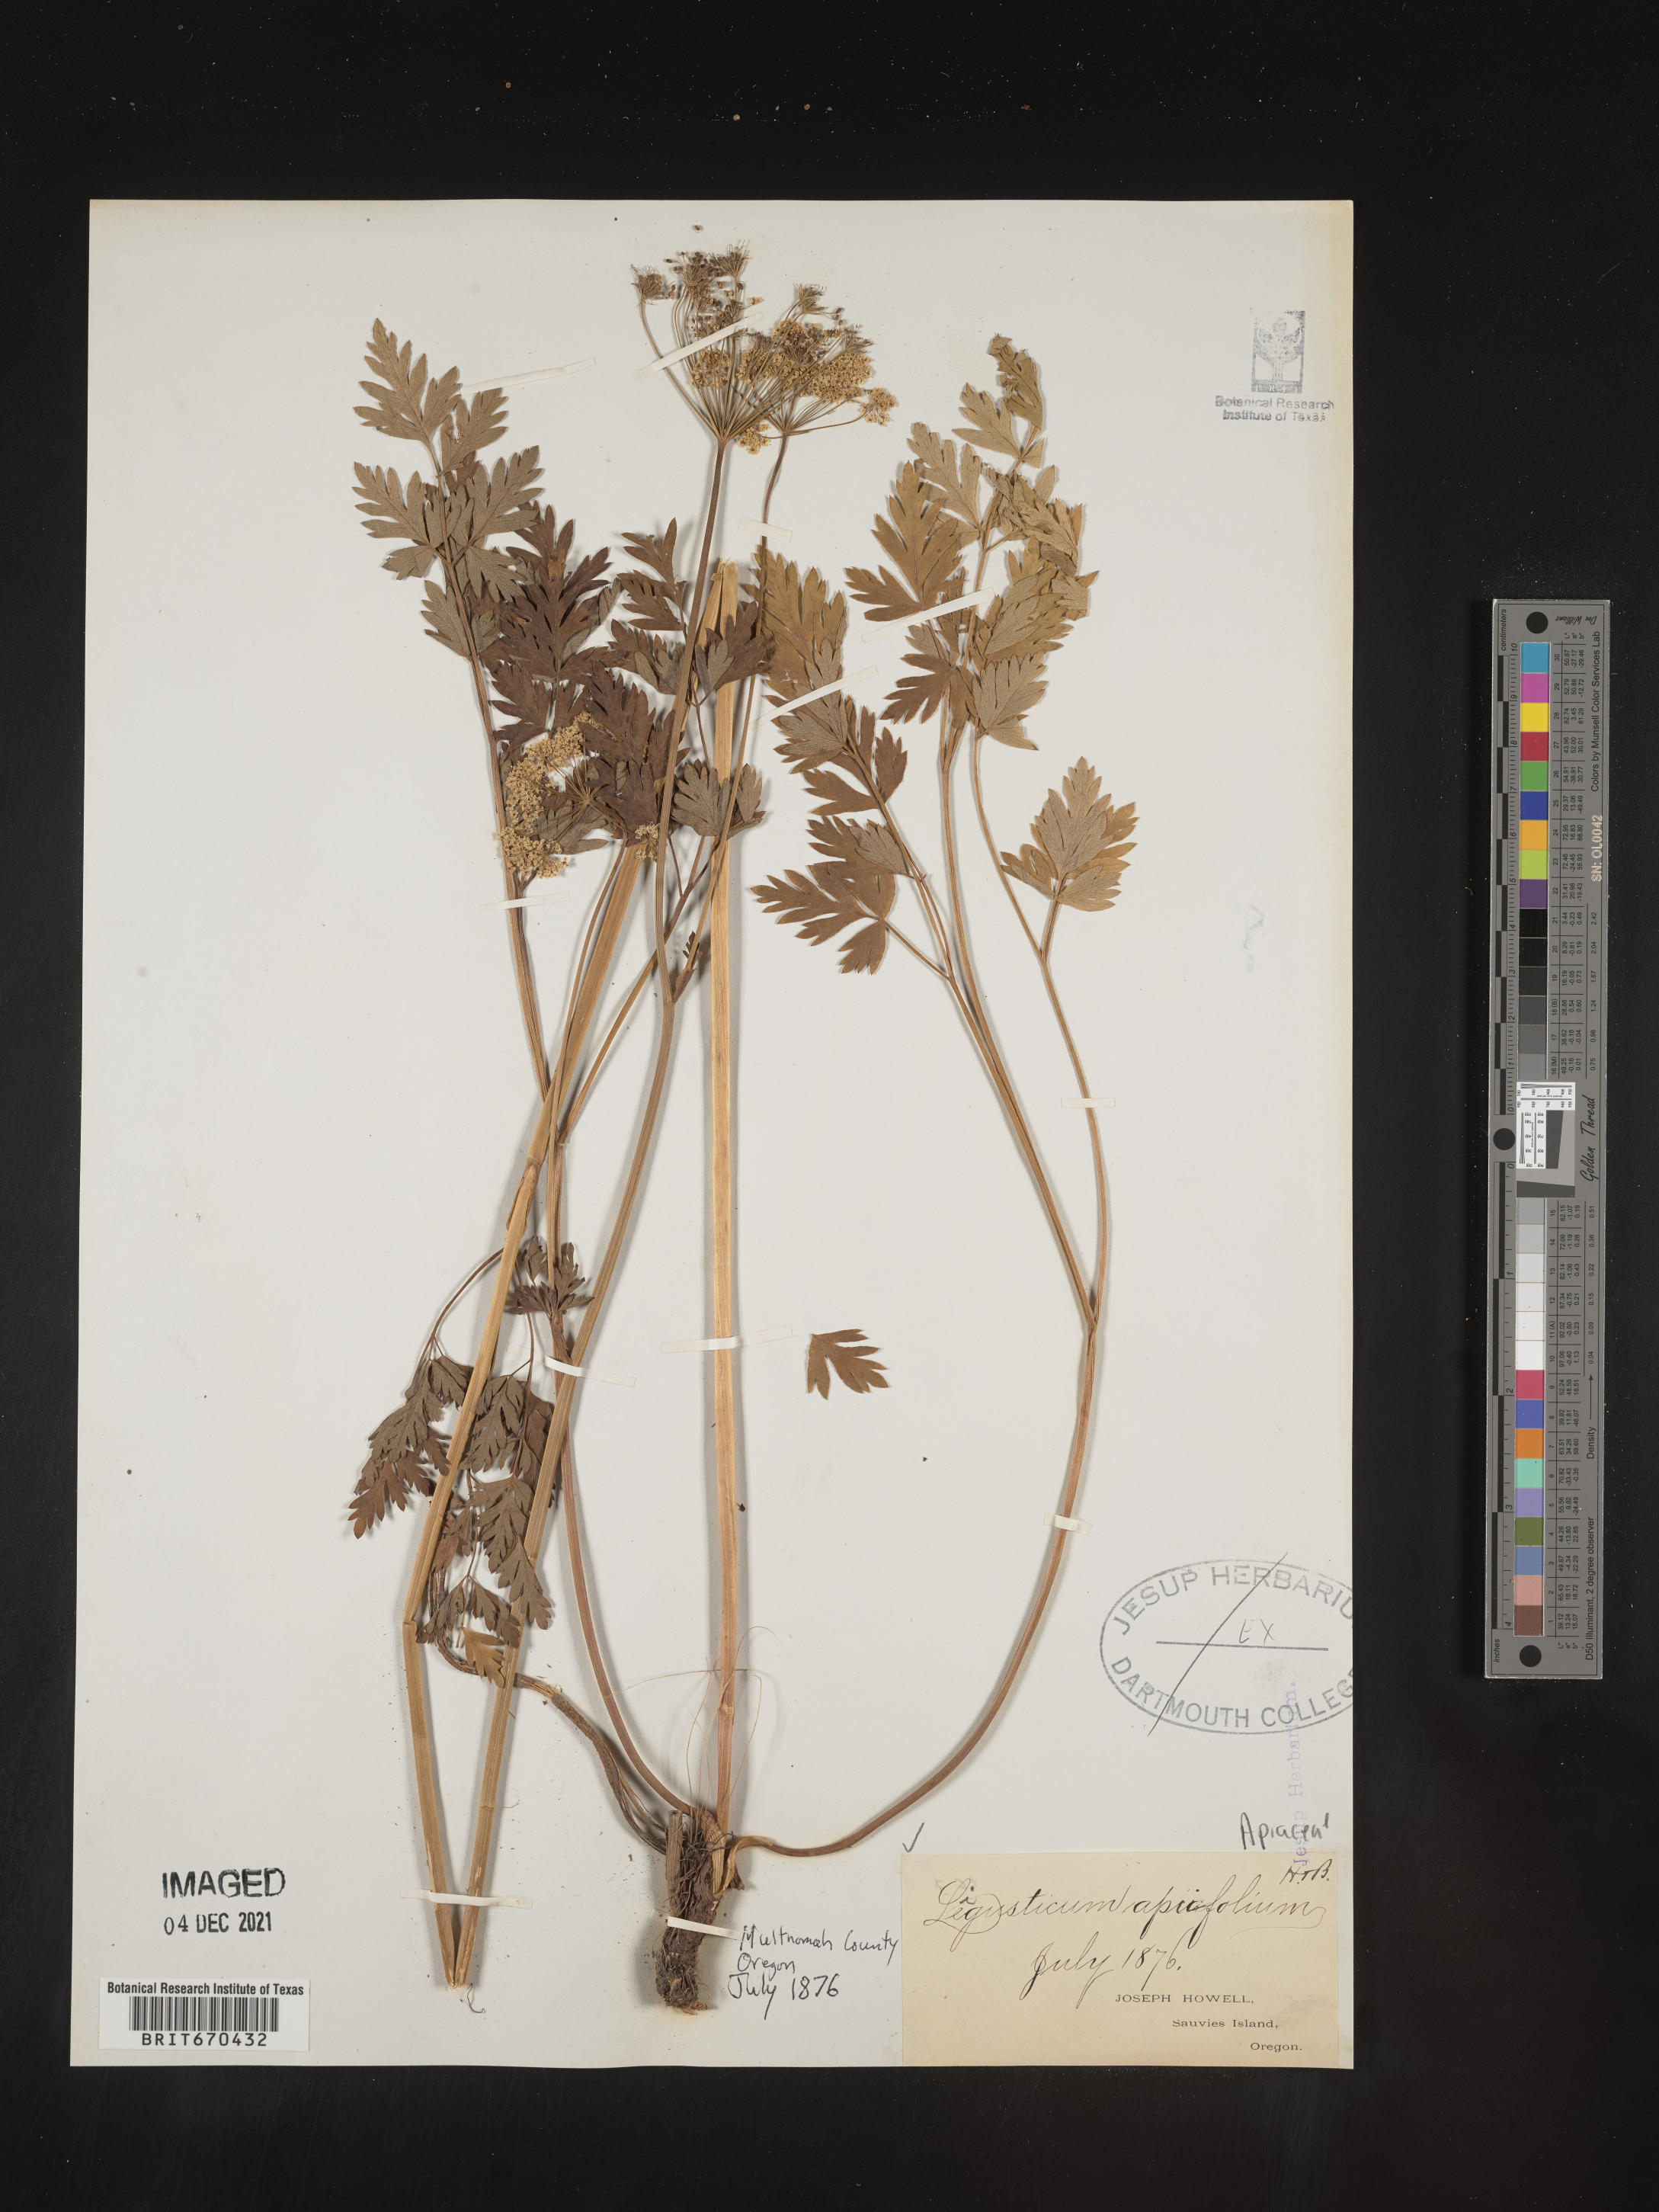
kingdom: Plantae
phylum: Tracheophyta
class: Magnoliopsida
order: Apiales
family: Apiaceae
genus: Ligusticum
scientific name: Ligusticum
